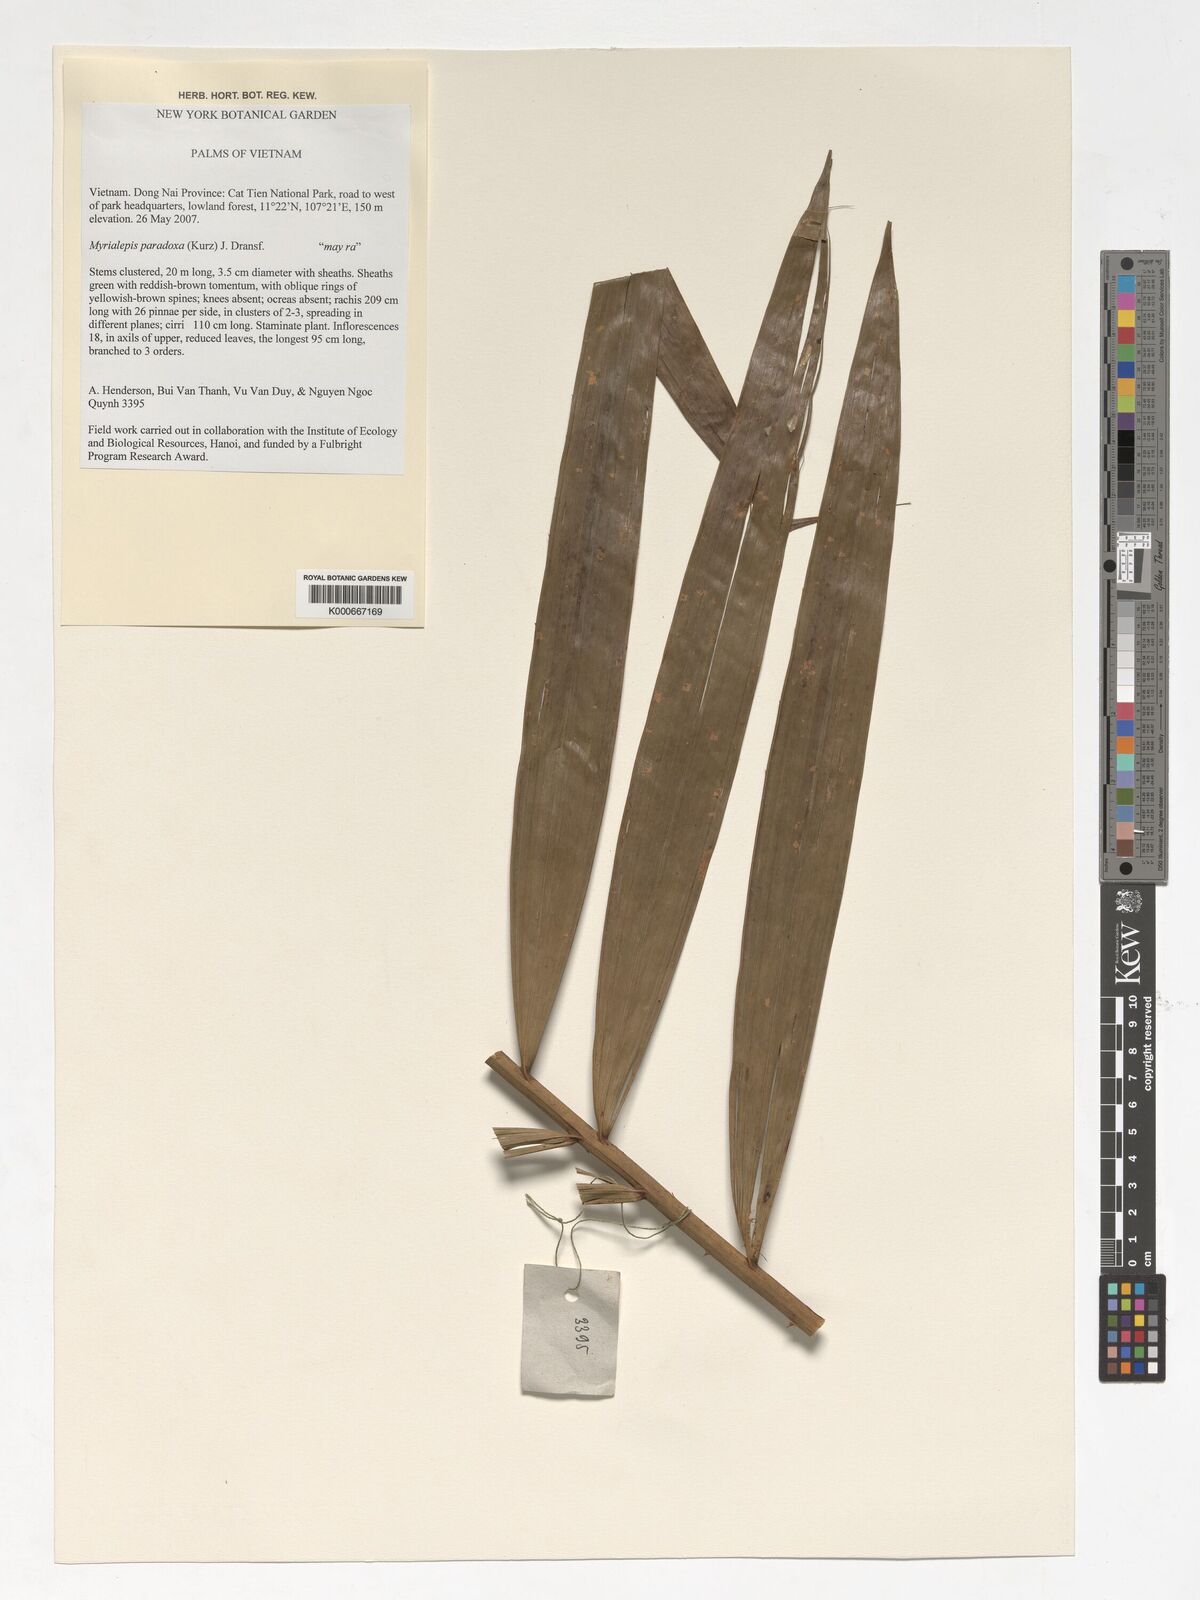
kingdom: Plantae
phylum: Tracheophyta
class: Liliopsida
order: Arecales
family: Arecaceae
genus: Myrialepis
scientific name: Myrialepis paradoxa
